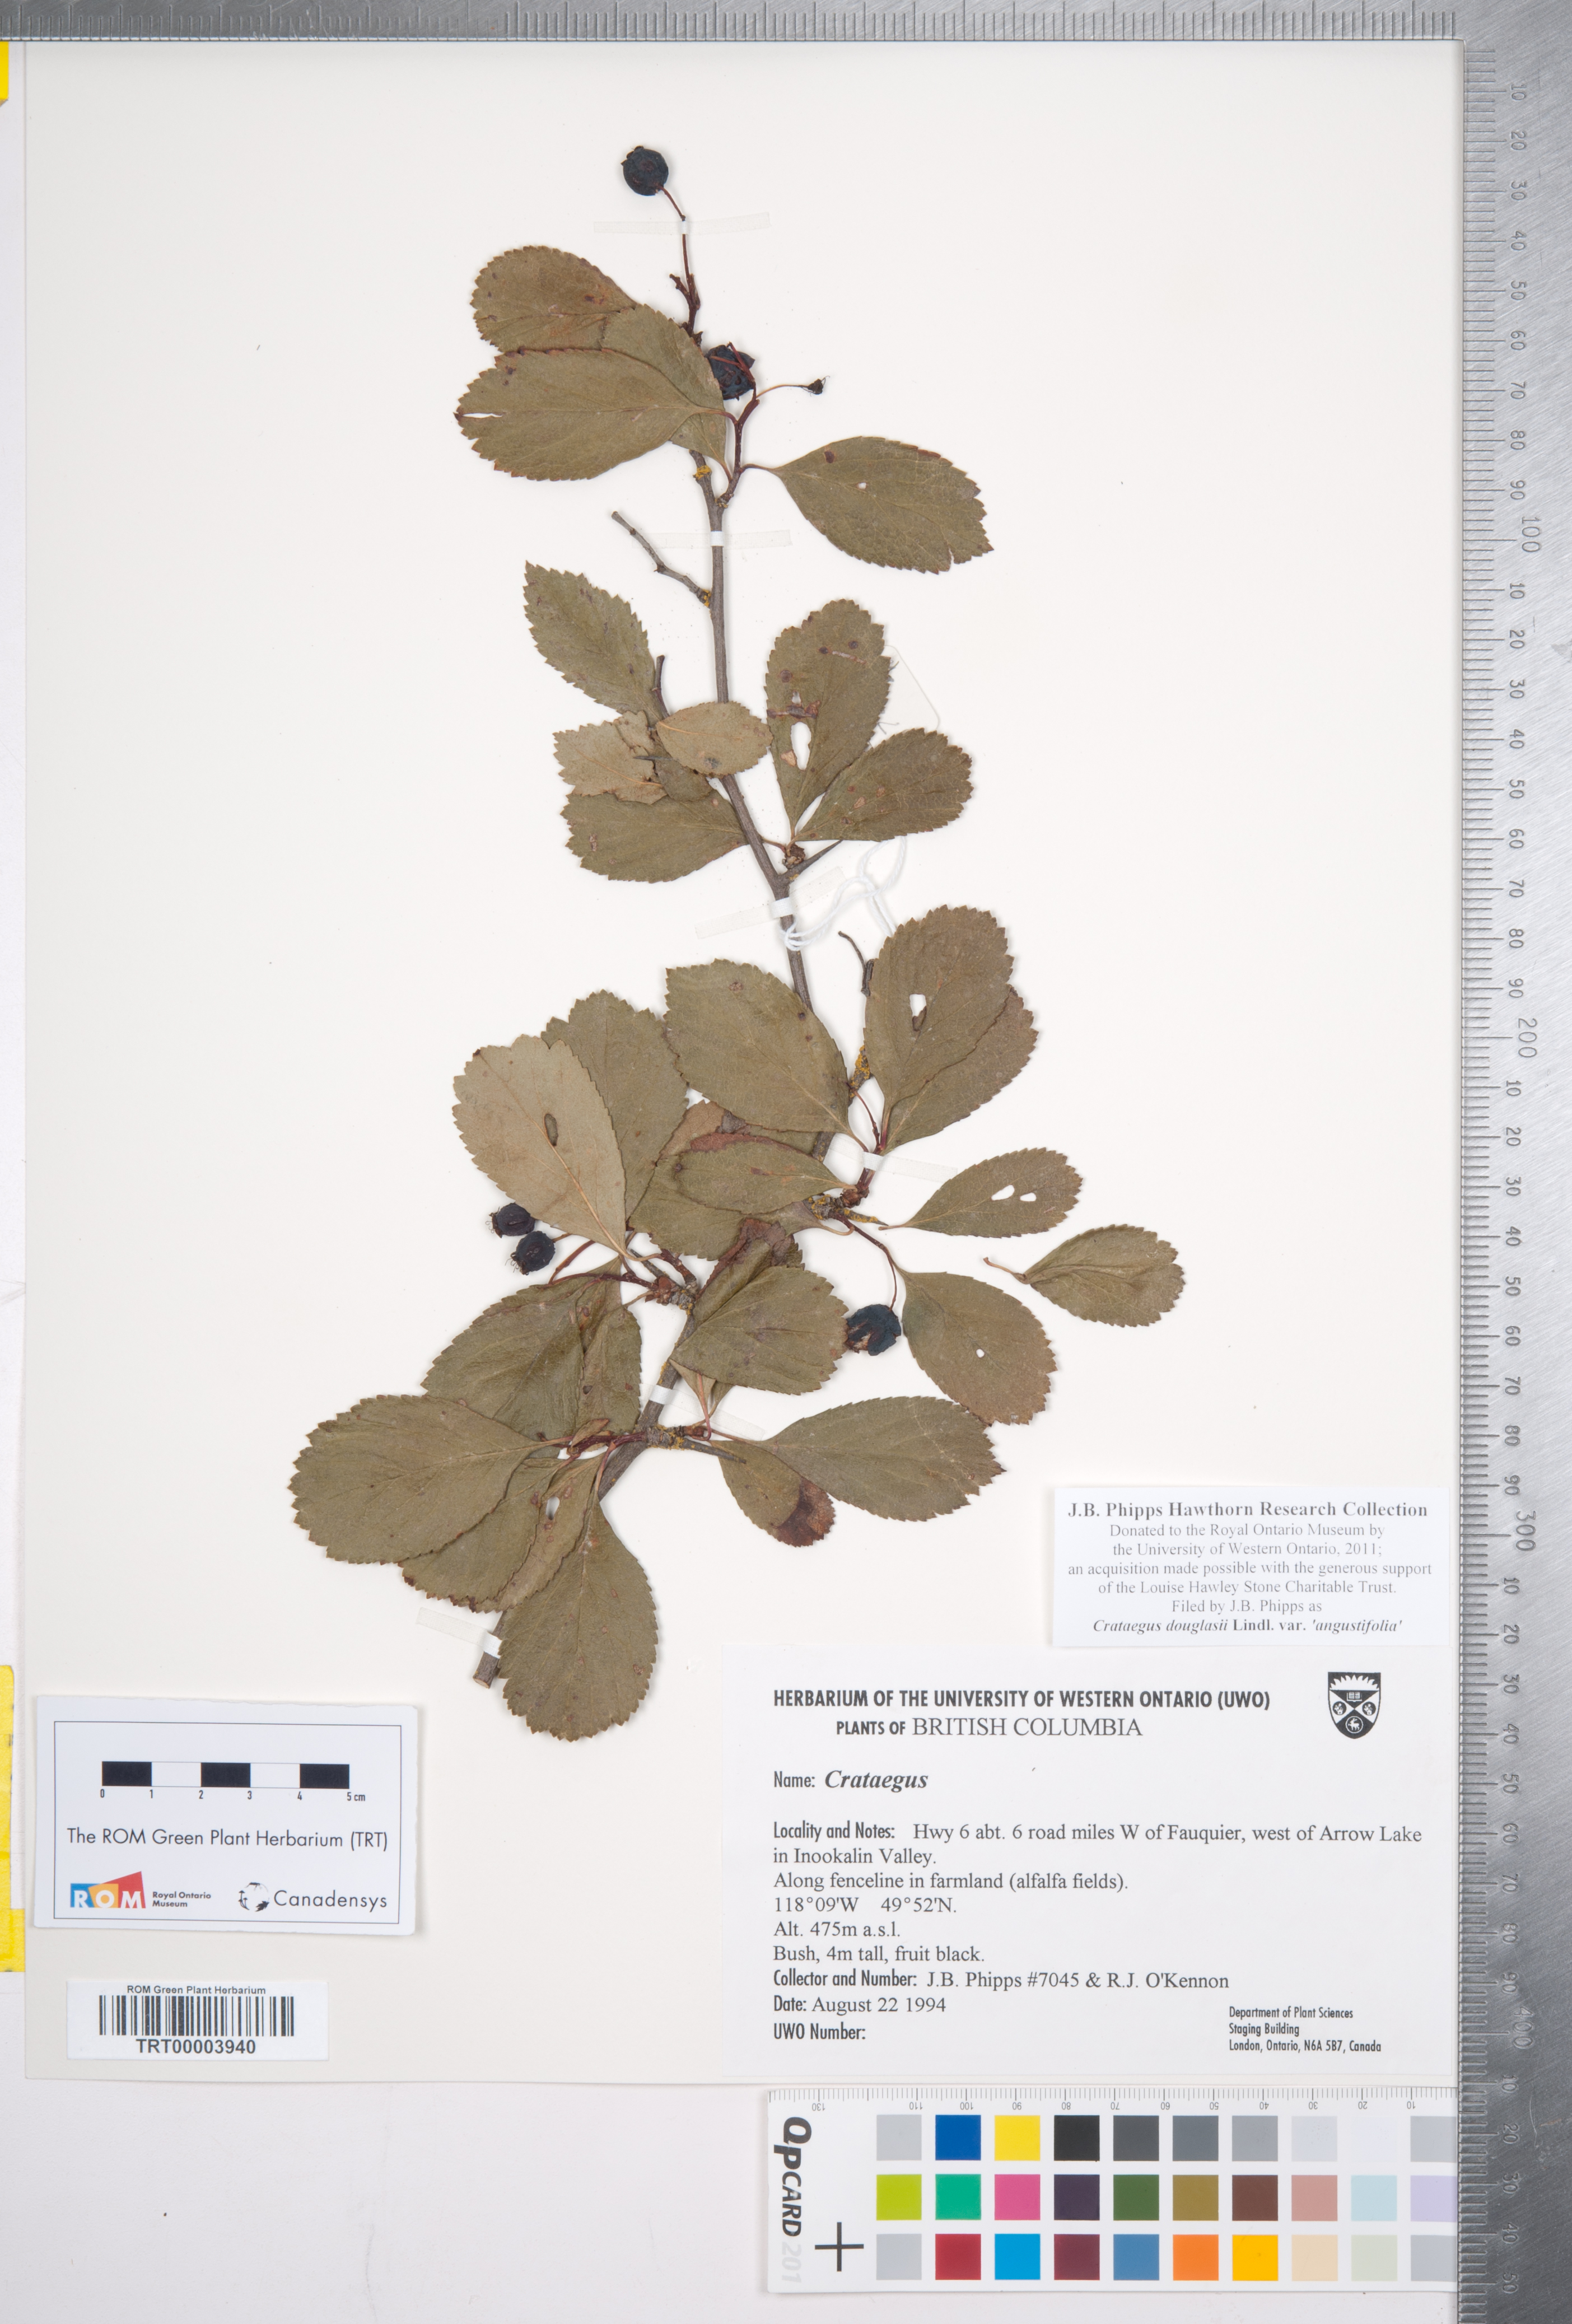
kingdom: Plantae
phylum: Tracheophyta
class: Magnoliopsida
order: Rosales
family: Rosaceae
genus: Crataegus
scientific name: Crataegus douglasii
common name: Black hawthorn
